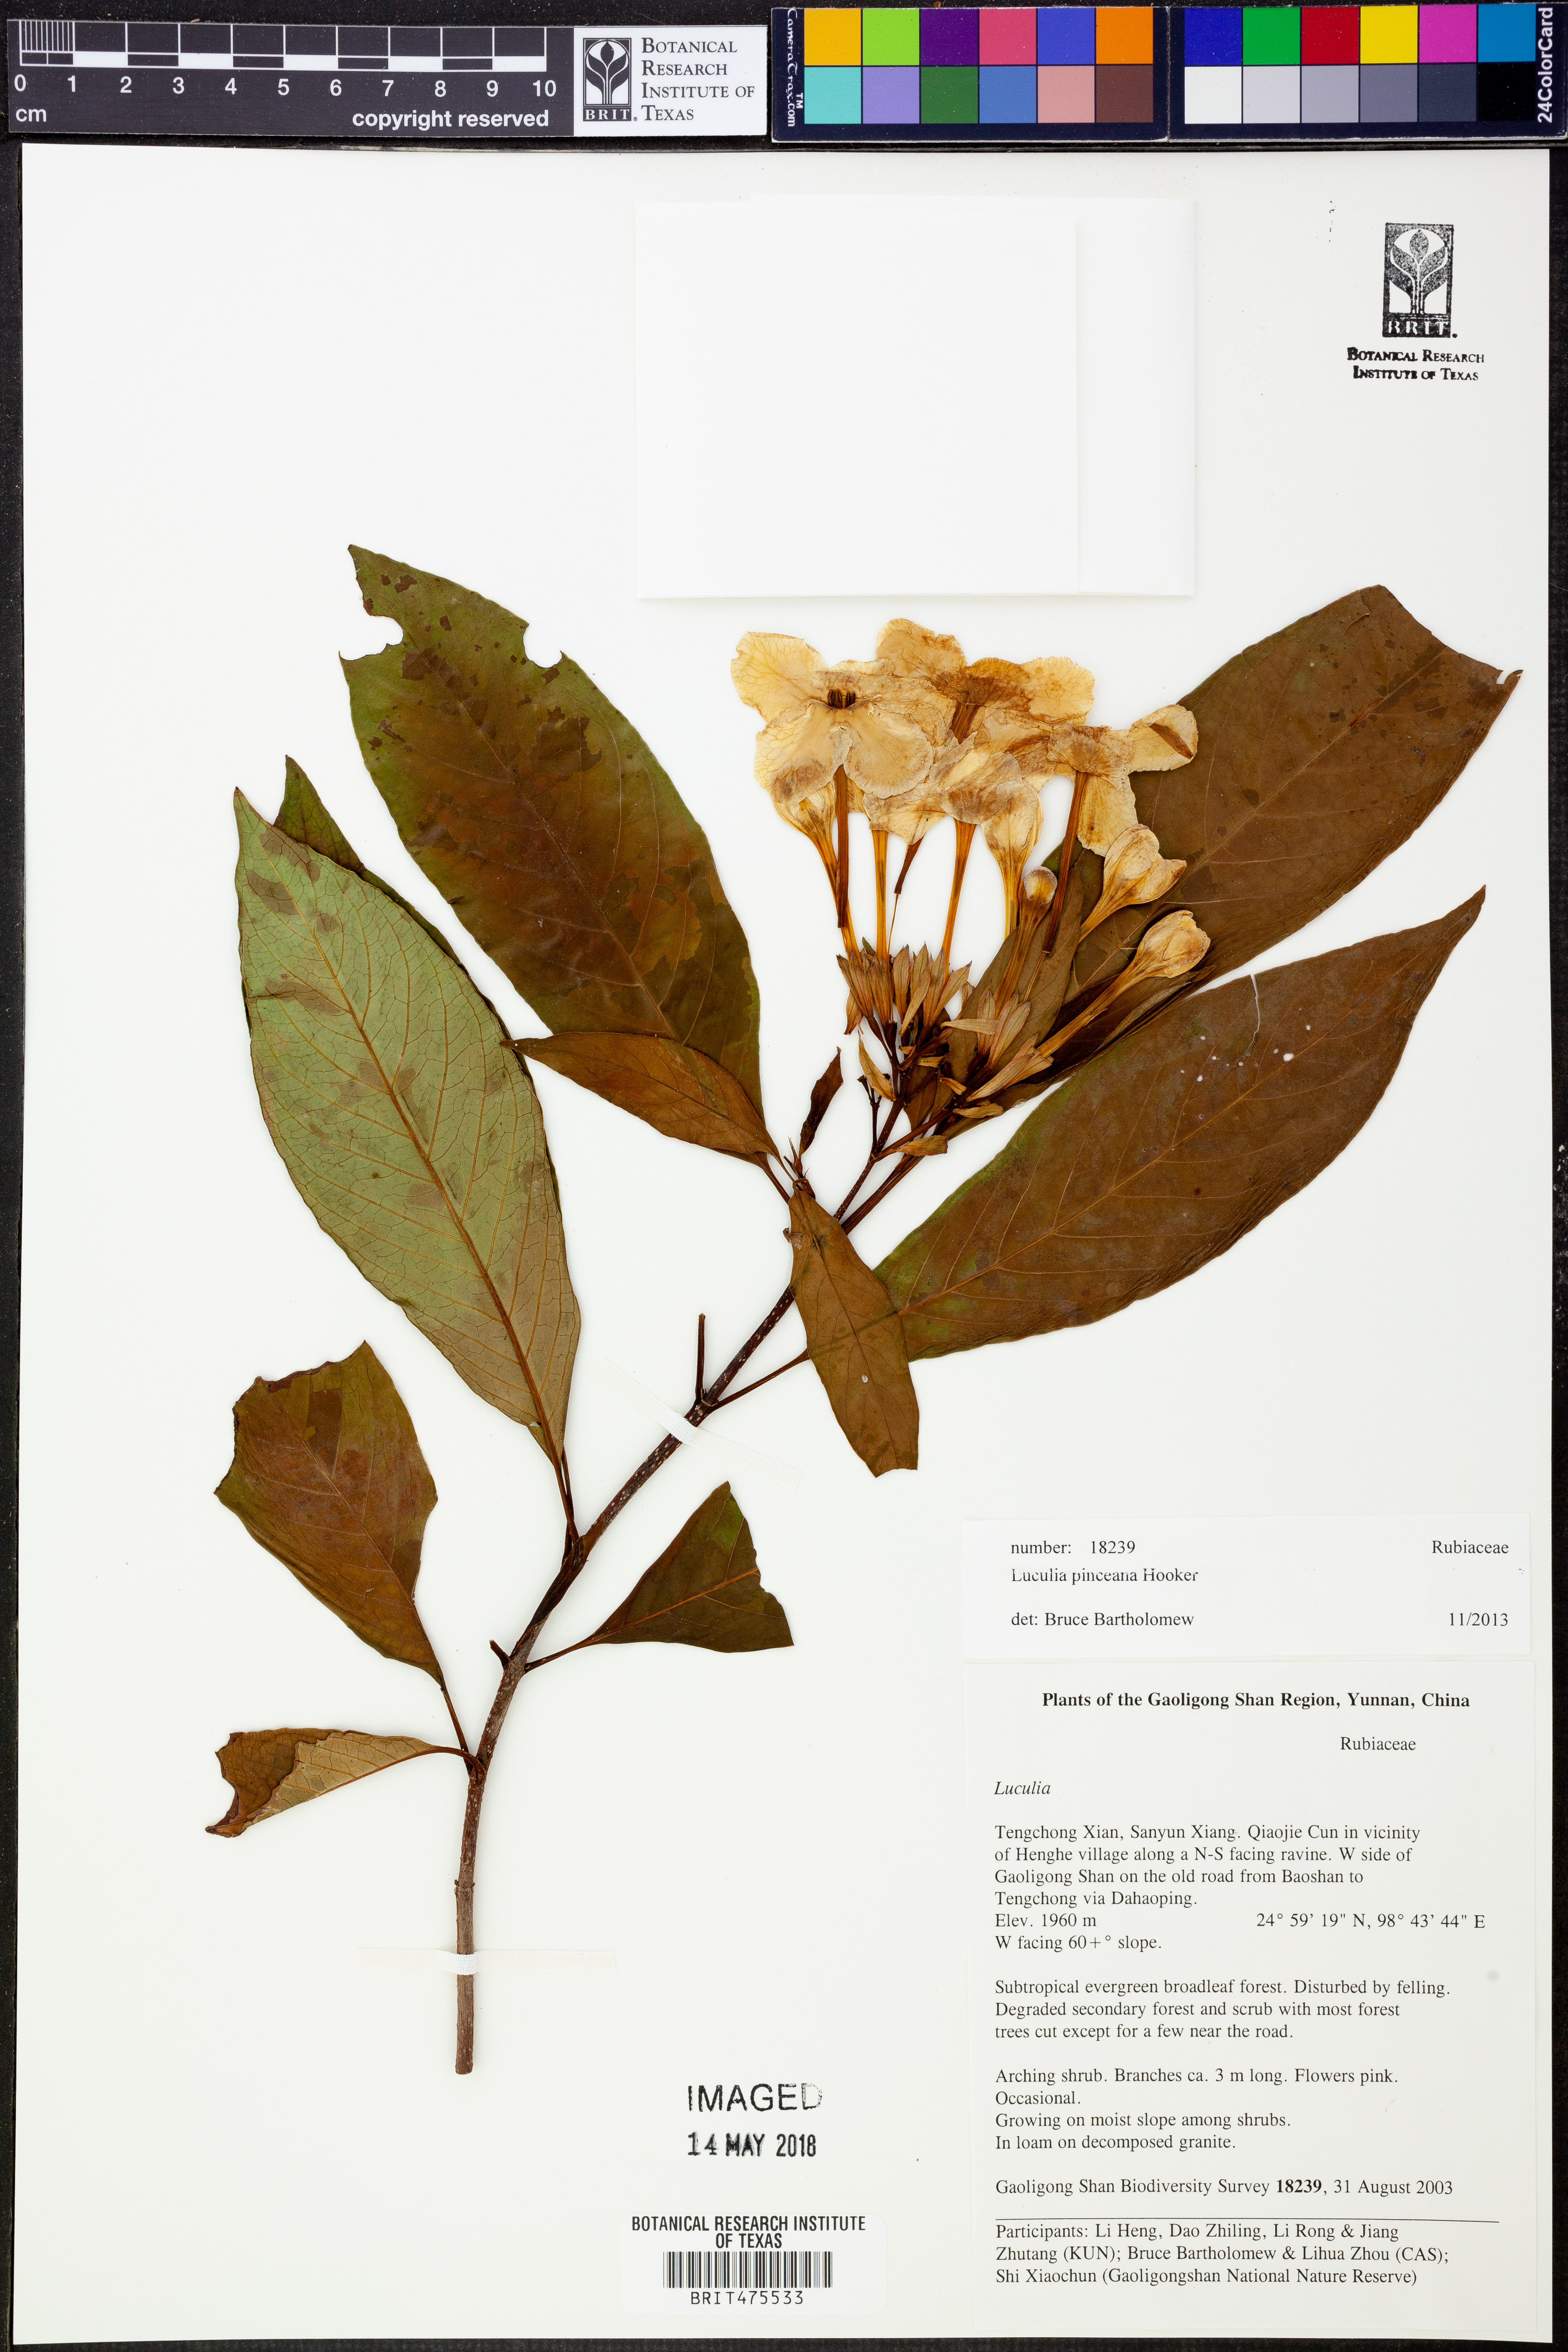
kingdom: Plantae
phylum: Tracheophyta
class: Magnoliopsida
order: Gentianales
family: Rubiaceae
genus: Luculia
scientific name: Luculia pinceana
